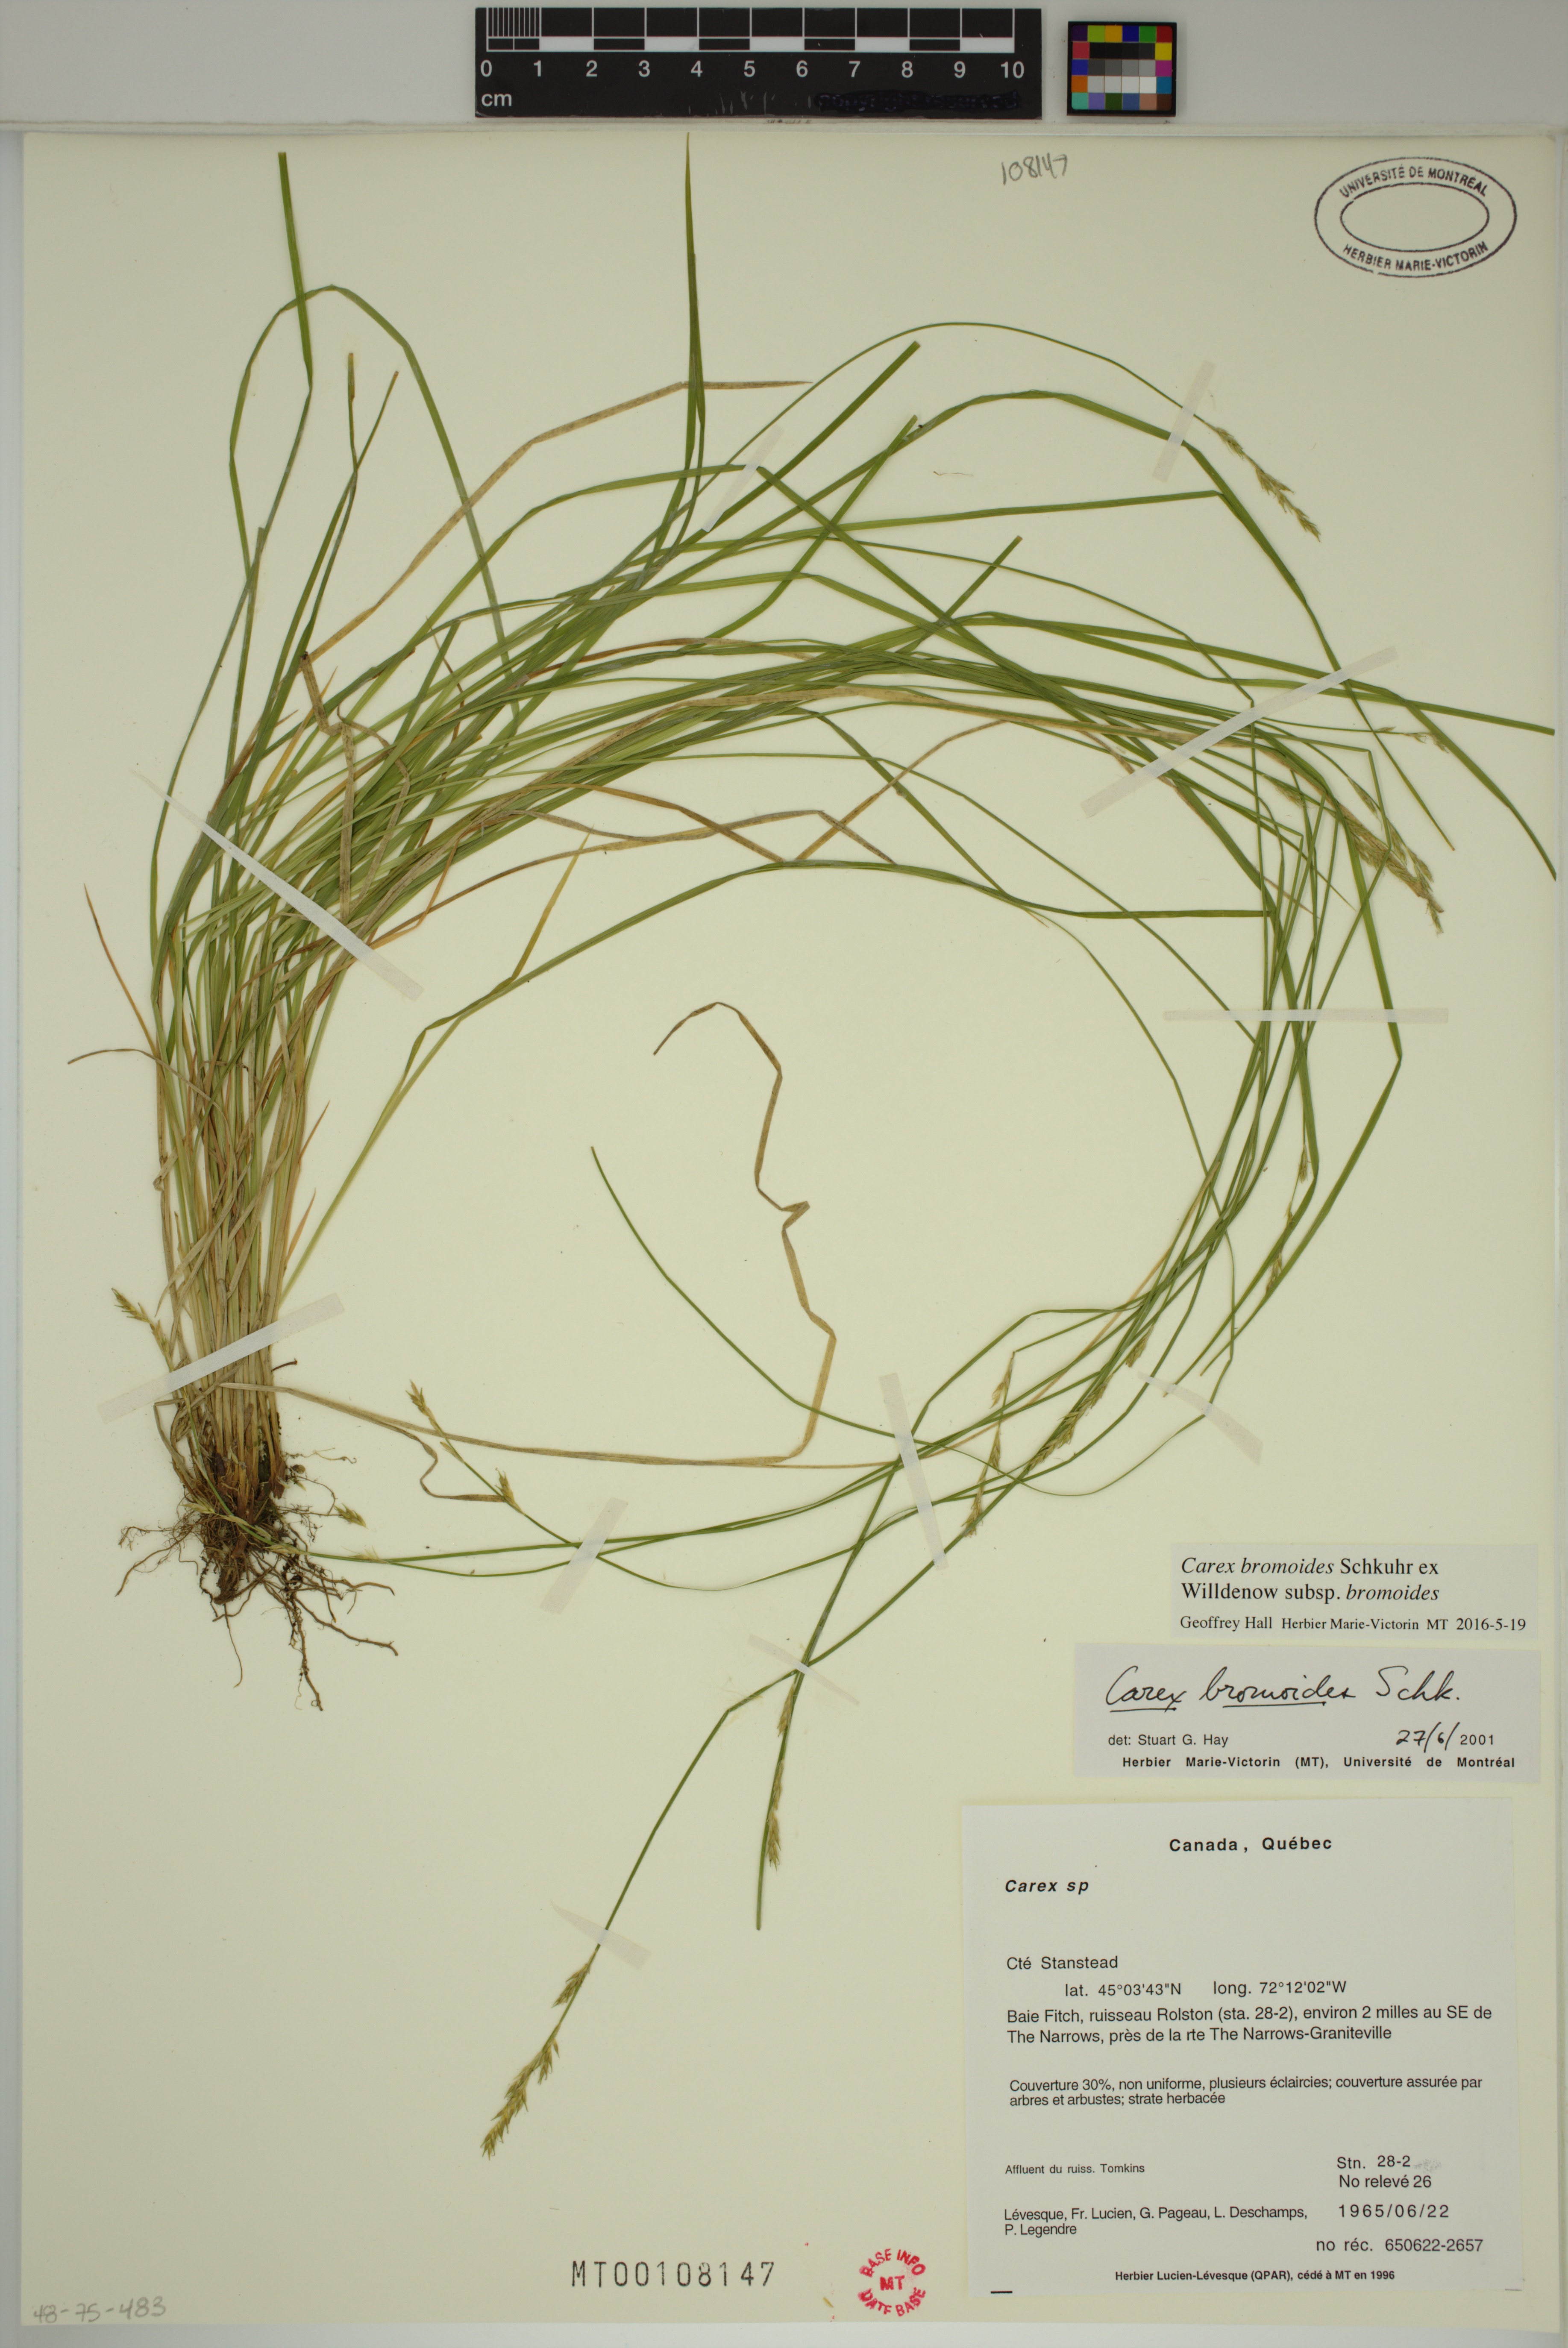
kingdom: Plantae
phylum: Tracheophyta
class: Liliopsida
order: Poales
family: Cyperaceae
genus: Carex
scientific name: Carex bromoides
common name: Brome hummock sedge
